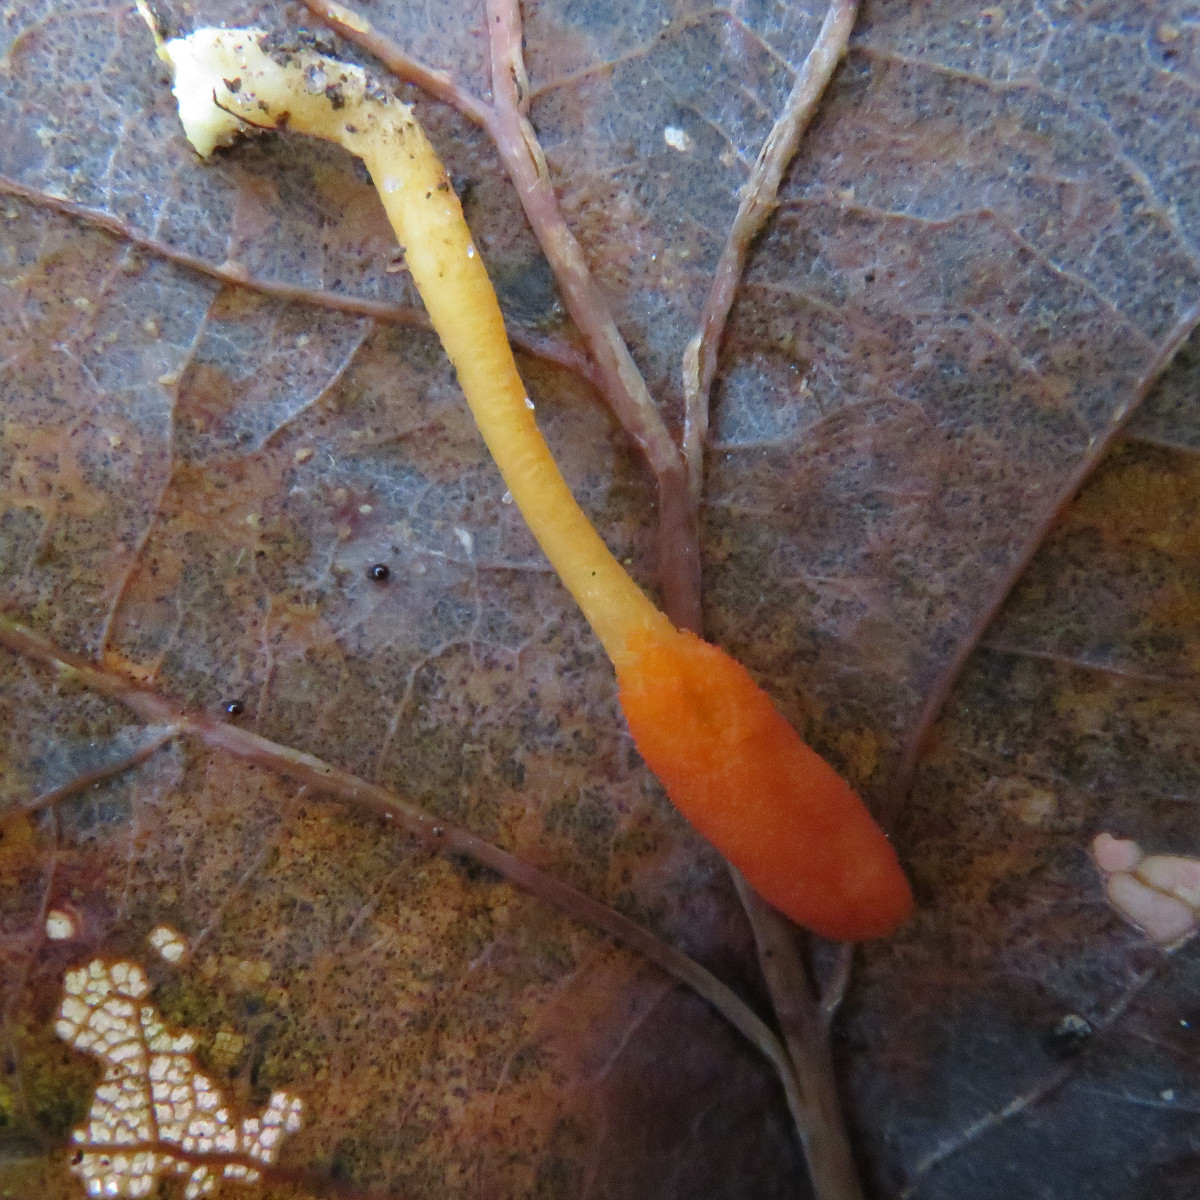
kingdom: Fungi
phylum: Ascomycota
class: Sordariomycetes
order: Hypocreales
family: Cordycipitaceae
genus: Cordyceps
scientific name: Cordyceps militaris
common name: puppe-snyltekølle
